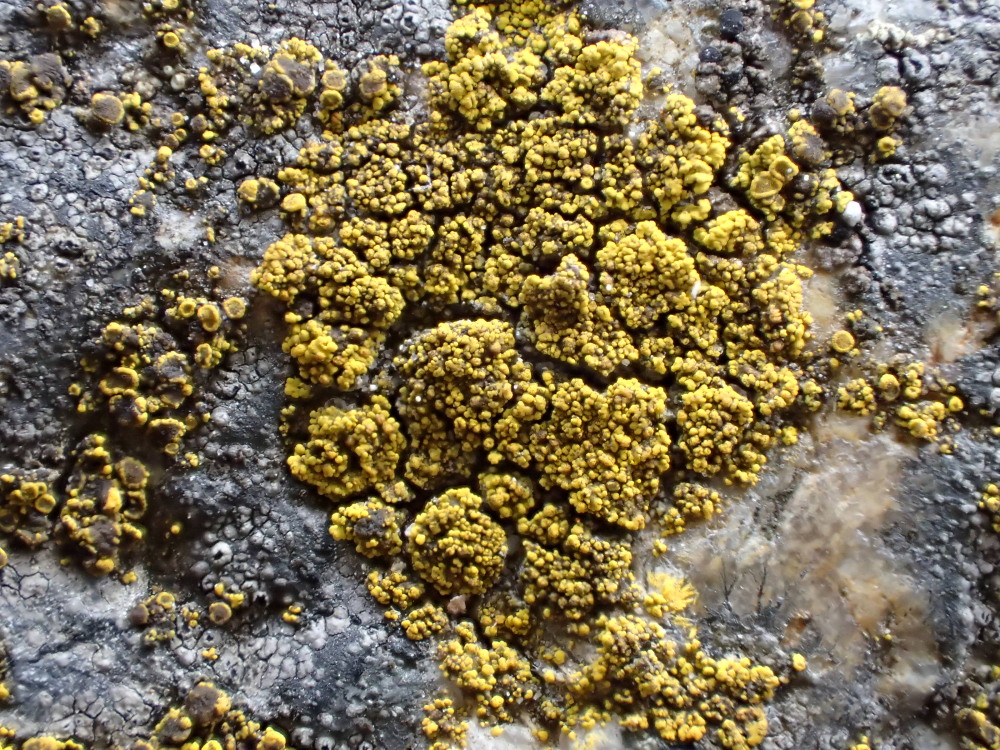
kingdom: Fungi
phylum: Ascomycota
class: Candelariomycetes
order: Candelariales
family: Candelariaceae
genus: Candelariella
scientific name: Candelariella vitellina
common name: almindelig æggeblommelav
